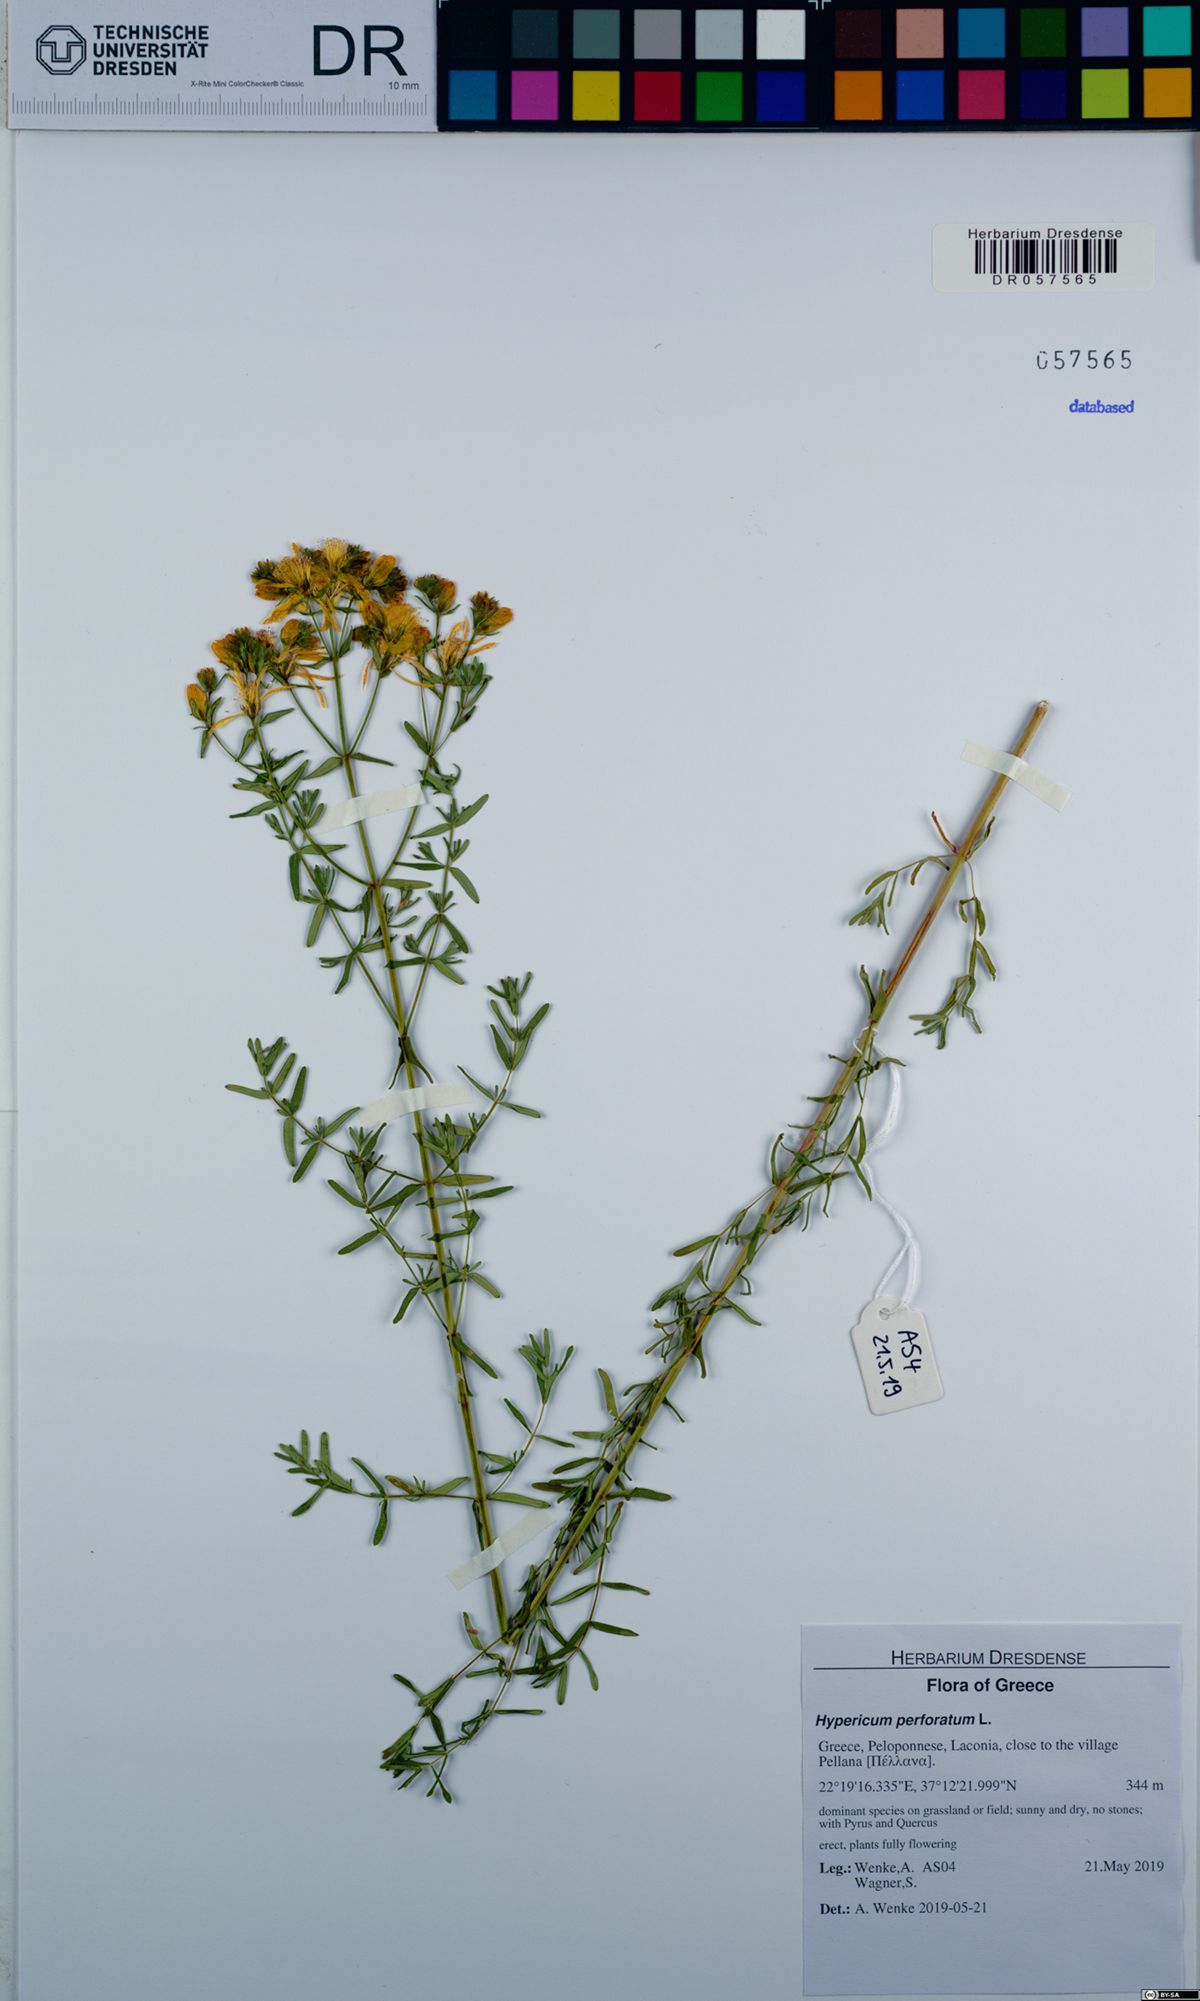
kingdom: Plantae
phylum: Tracheophyta
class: Magnoliopsida
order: Malpighiales
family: Hypericaceae
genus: Hypericum
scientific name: Hypericum perforatum
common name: Common st. johnswort
